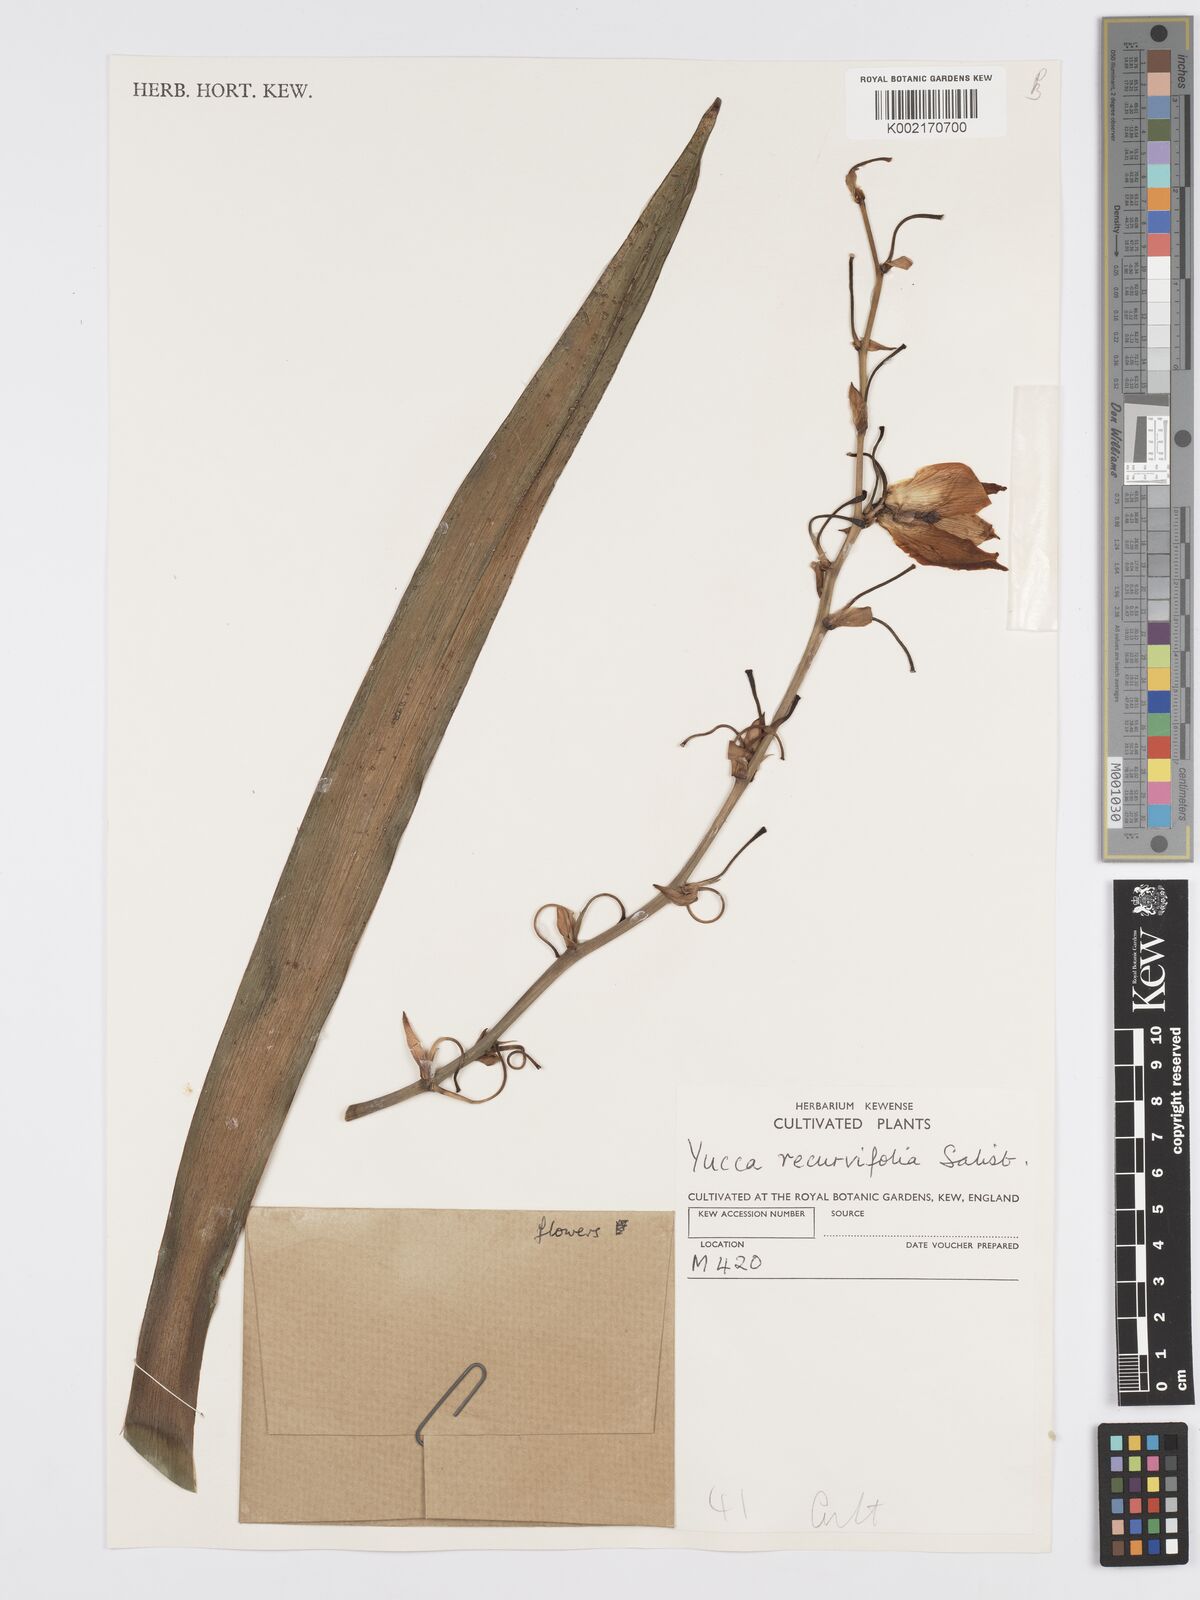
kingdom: Plantae
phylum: Tracheophyta
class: Liliopsida
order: Asparagales
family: Asparagaceae
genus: Yucca
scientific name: Yucca gloriosa
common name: Spanish-dagger
